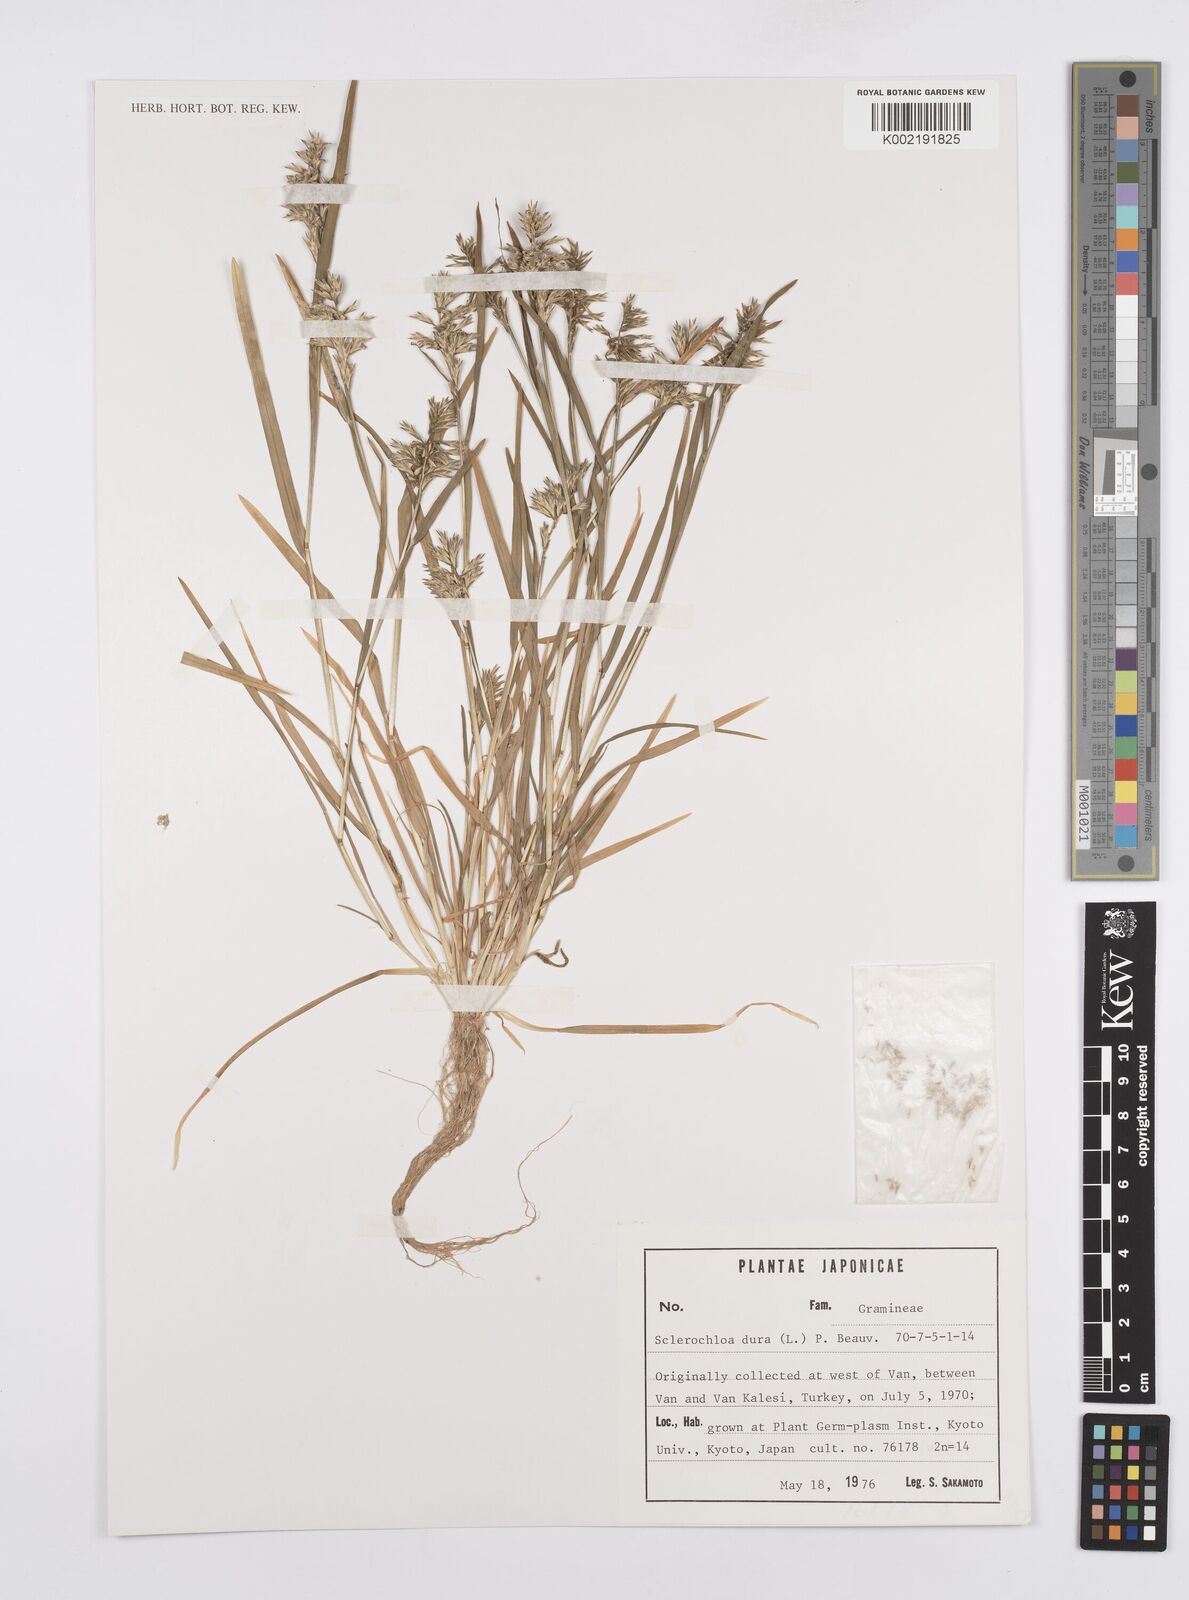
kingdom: Plantae
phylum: Tracheophyta
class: Liliopsida
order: Poales
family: Poaceae
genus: Sclerochloa
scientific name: Sclerochloa dura
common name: Common hardgrass
